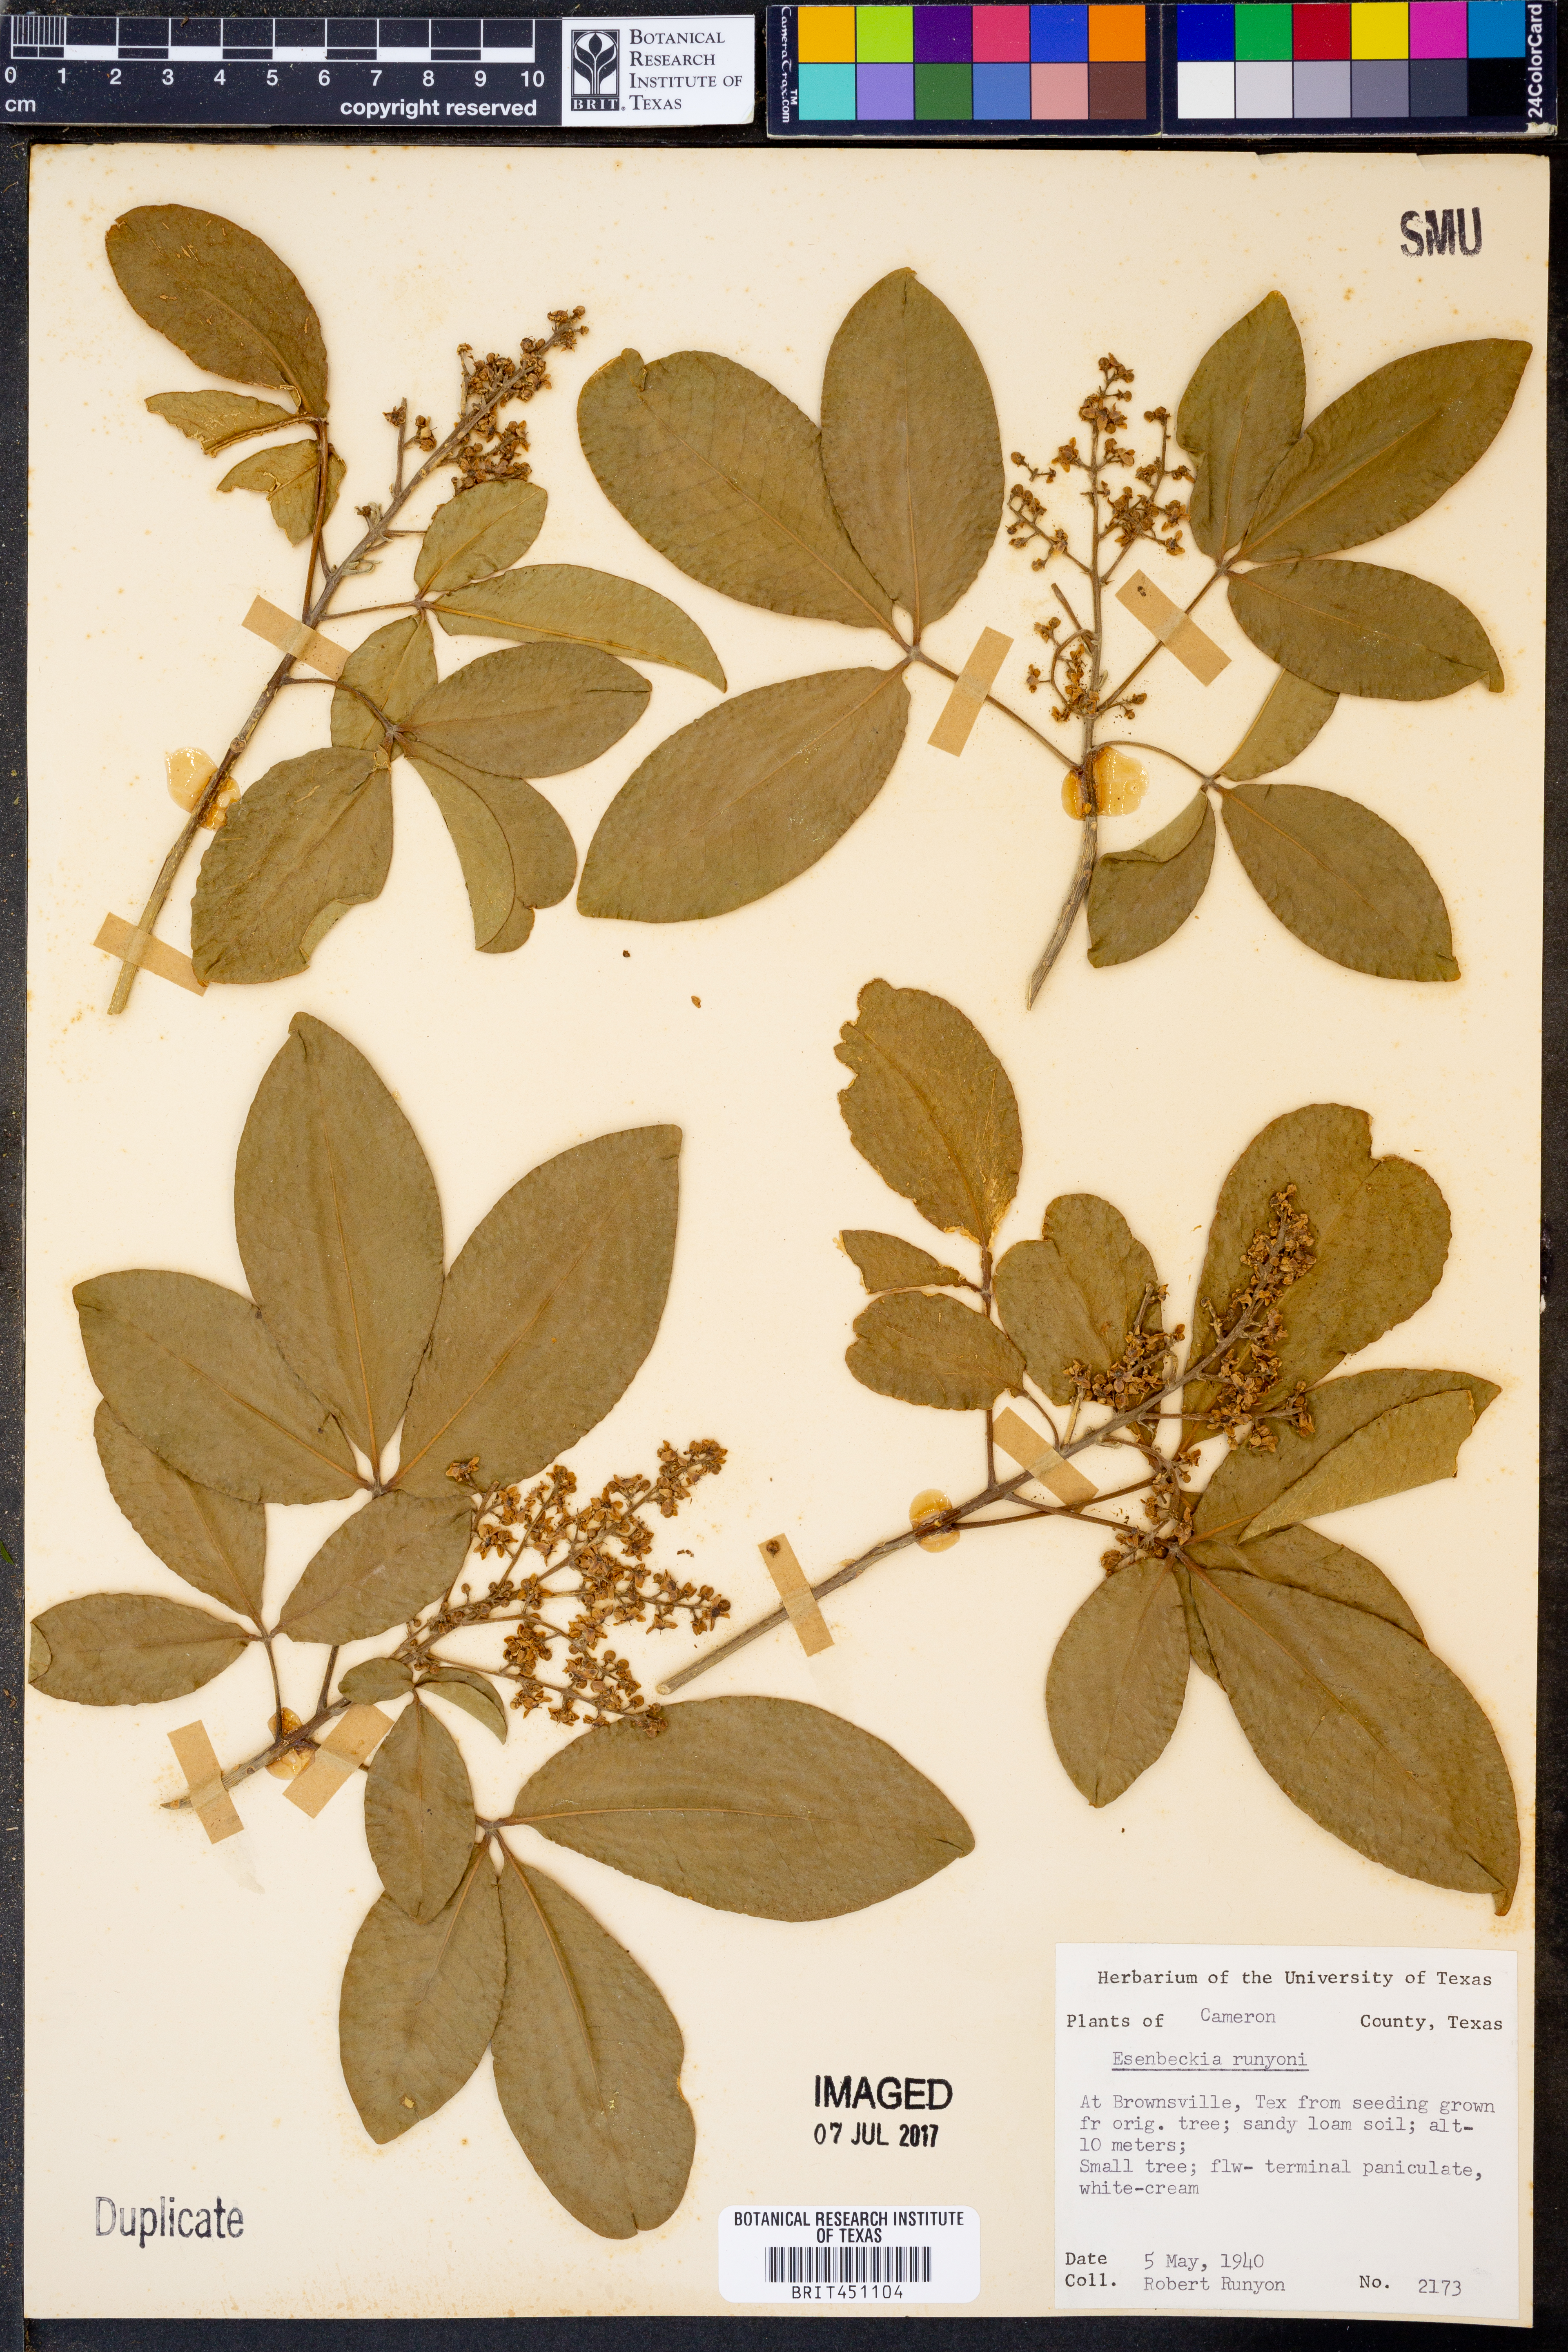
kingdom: Plantae
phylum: Tracheophyta
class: Magnoliopsida
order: Sapindales
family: Rutaceae
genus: Esenbeckia
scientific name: Esenbeckia berlandieri
